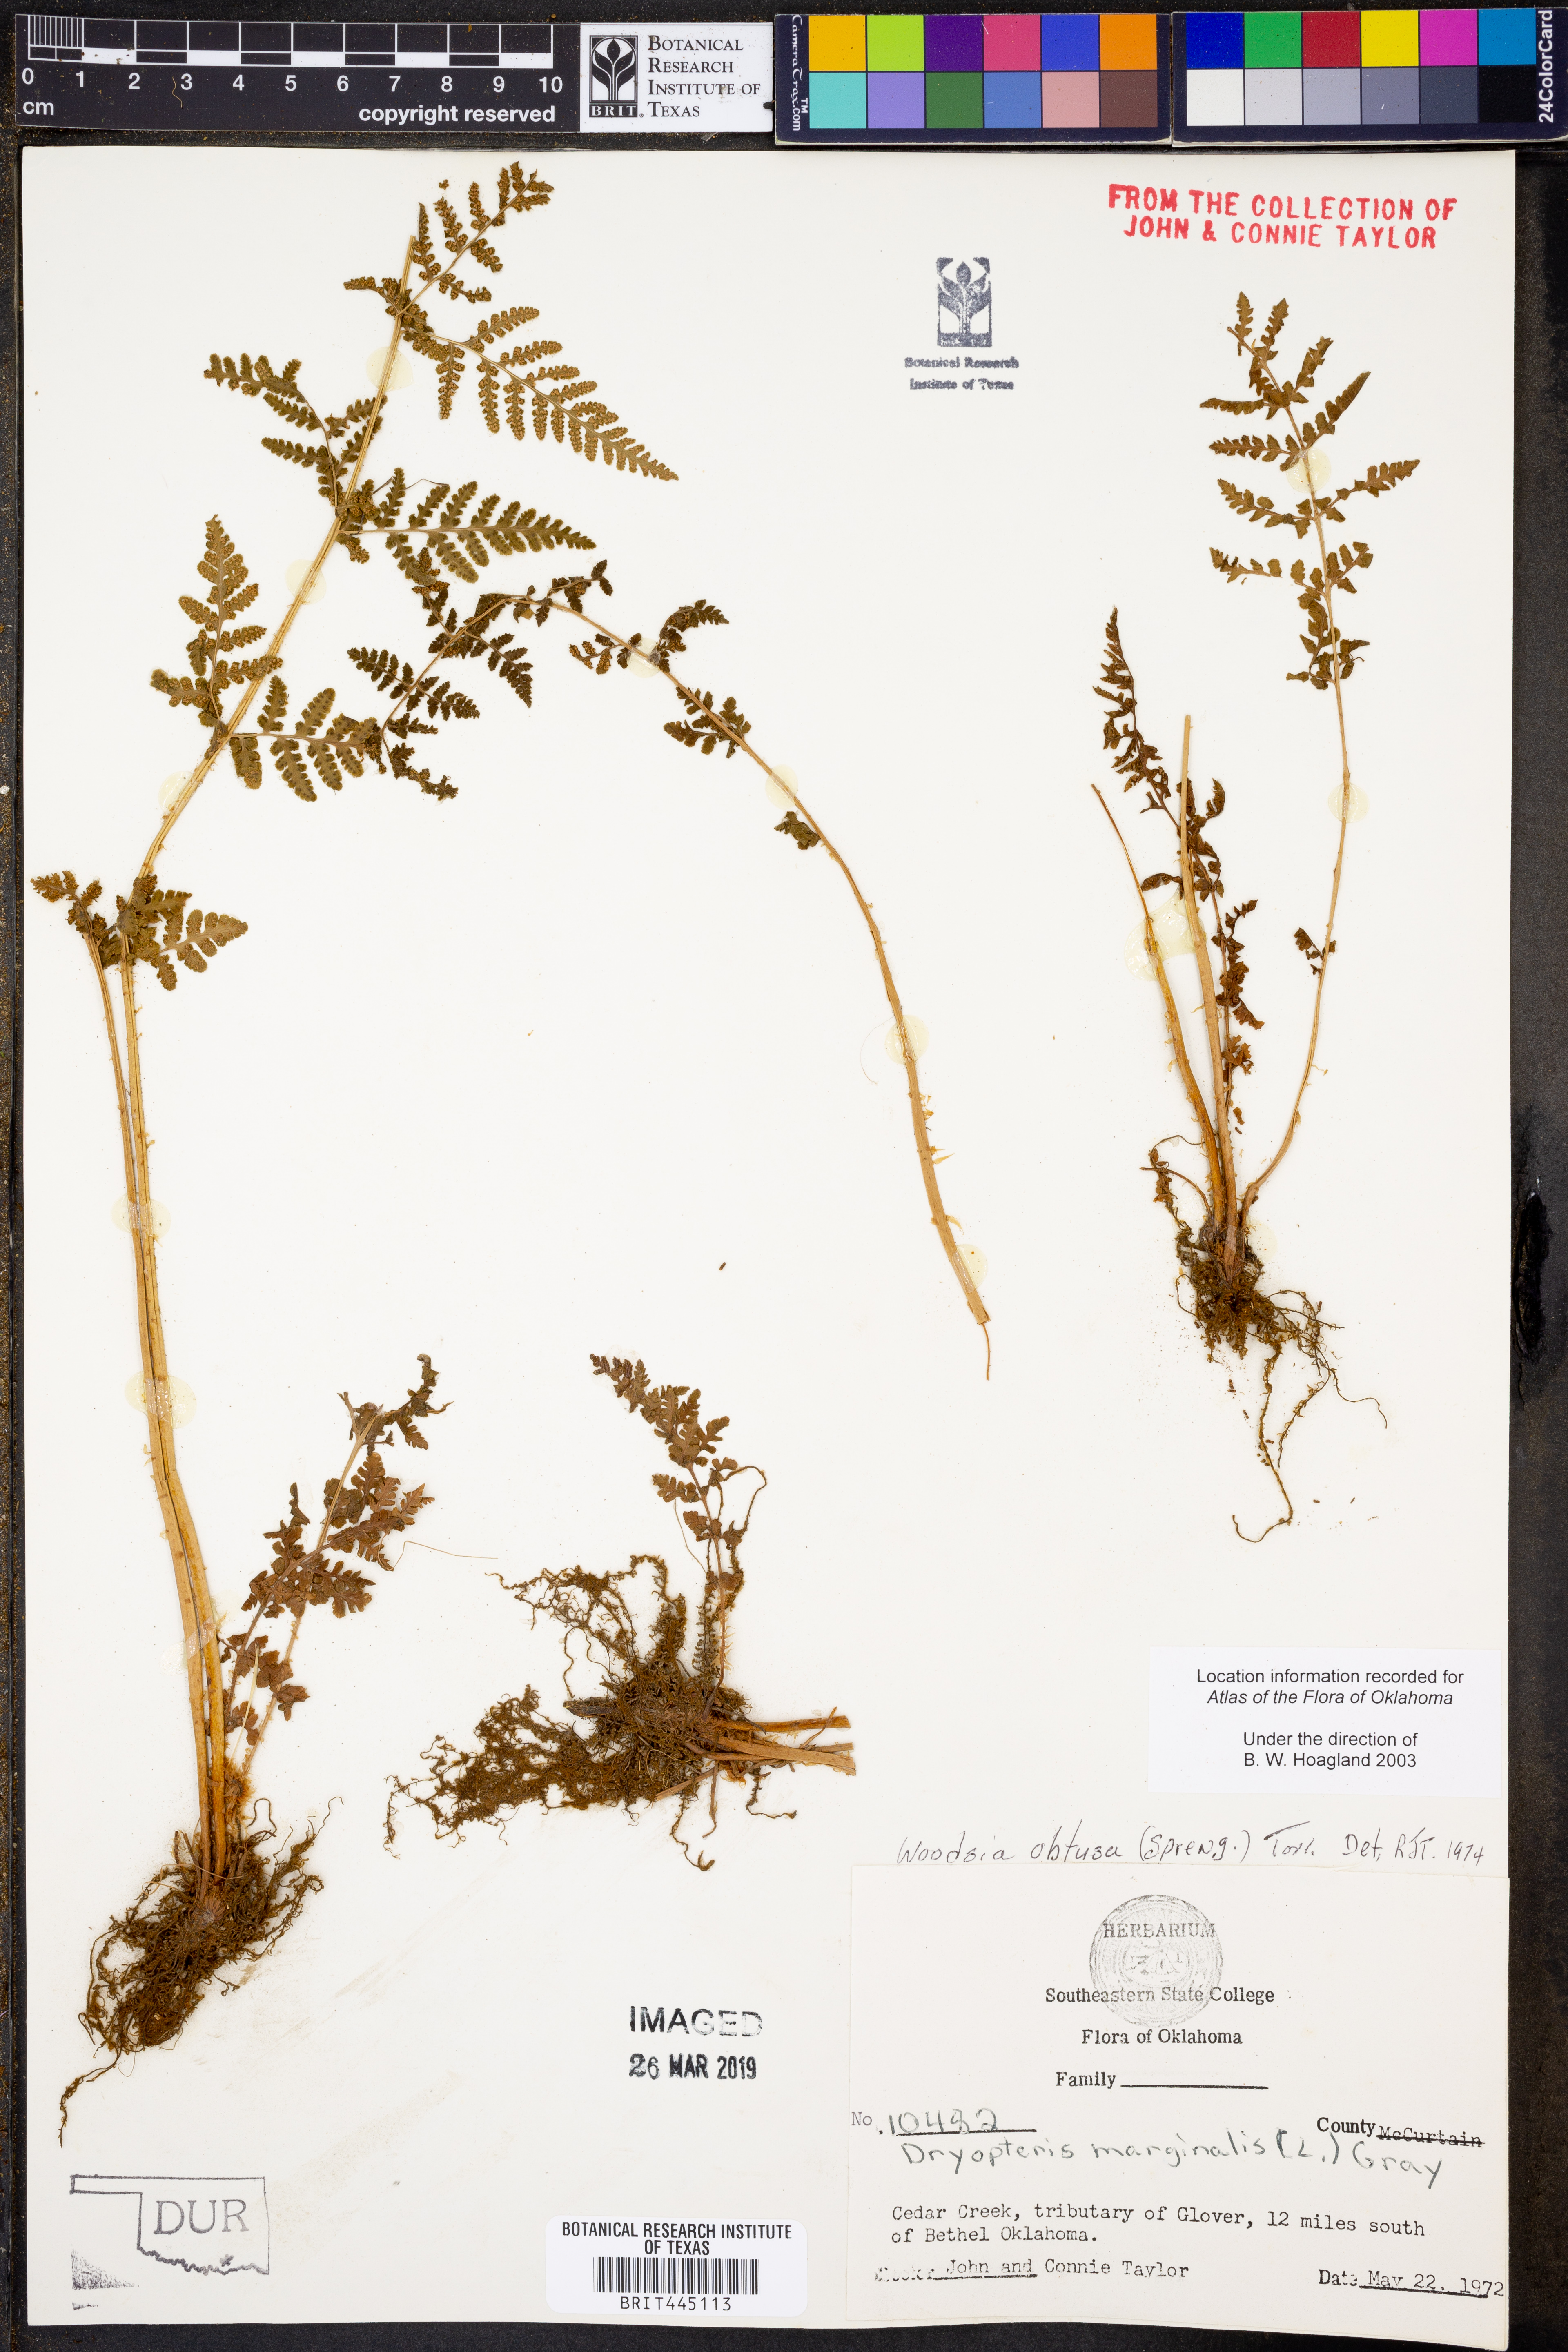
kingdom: Plantae
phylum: Tracheophyta
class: Polypodiopsida
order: Polypodiales
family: Woodsiaceae
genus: Physematium
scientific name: Physematium obtusum
